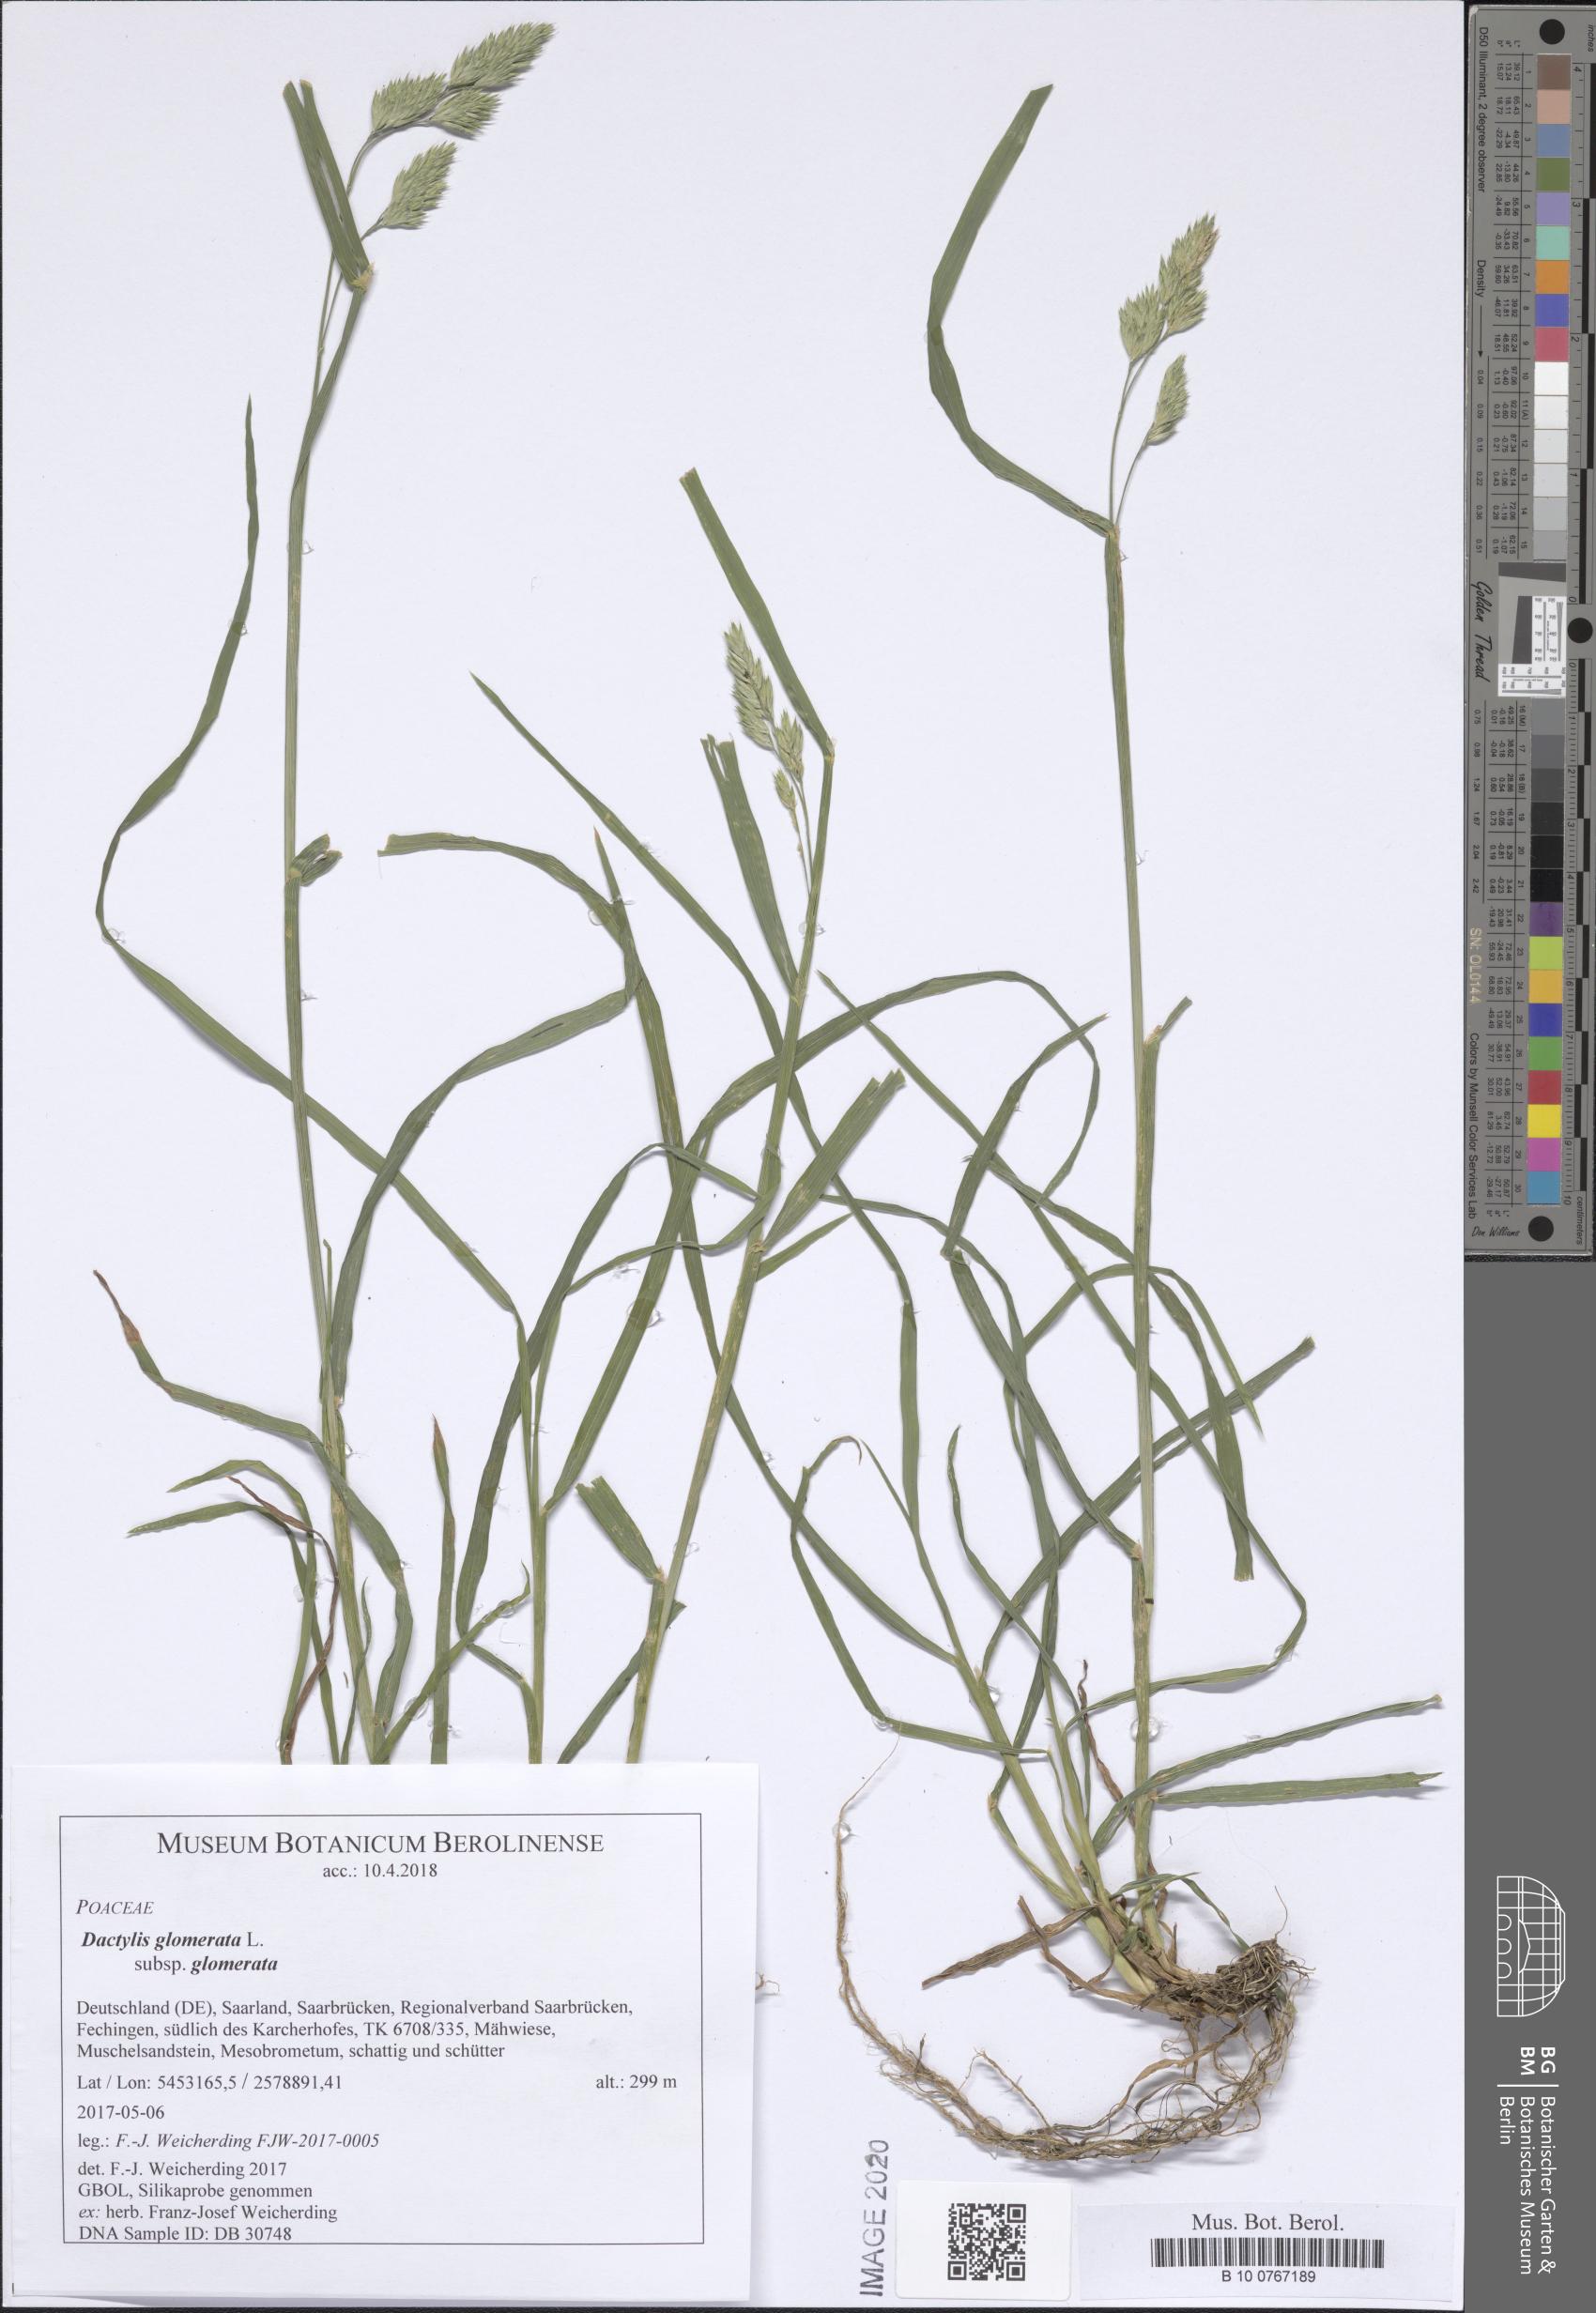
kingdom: Plantae
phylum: Tracheophyta
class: Liliopsida
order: Poales
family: Poaceae
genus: Dactylis
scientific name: Dactylis glomerata
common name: Orchardgrass
